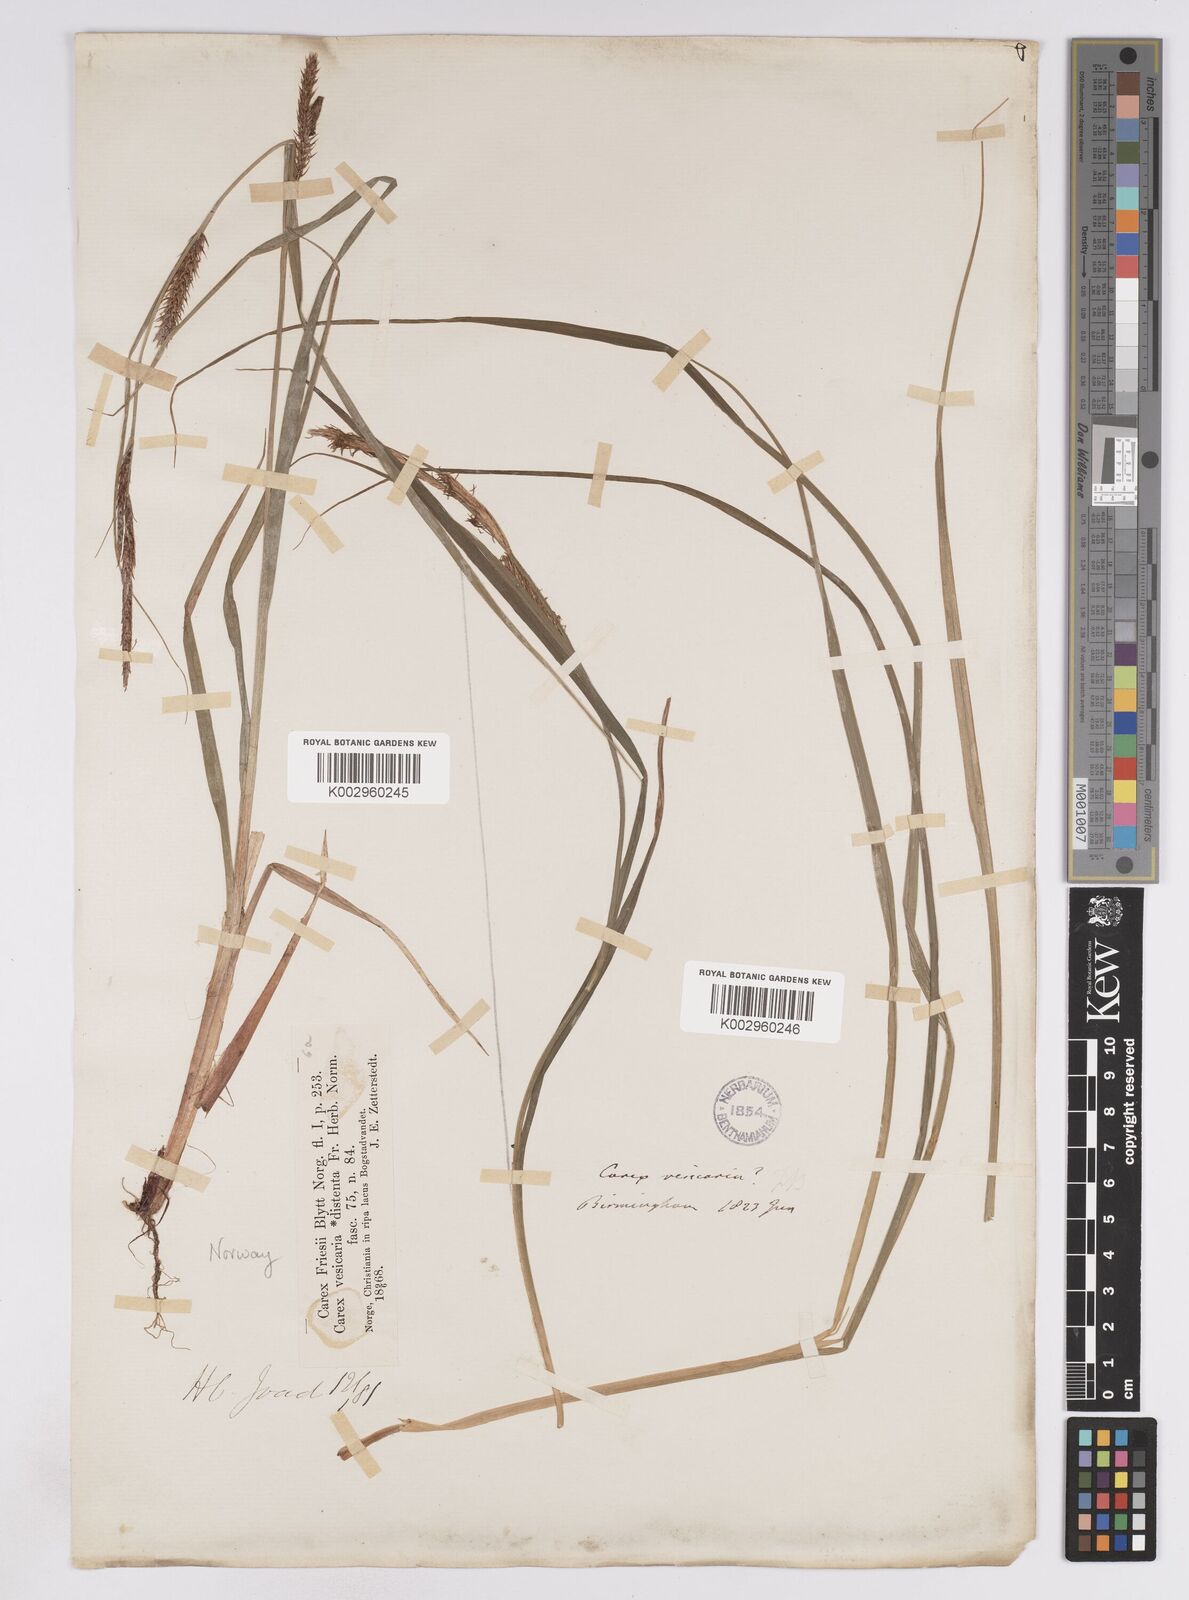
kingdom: Plantae
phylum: Tracheophyta
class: Liliopsida
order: Poales
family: Cyperaceae
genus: Carex
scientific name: Carex vesicaria
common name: Bladder-sedge
